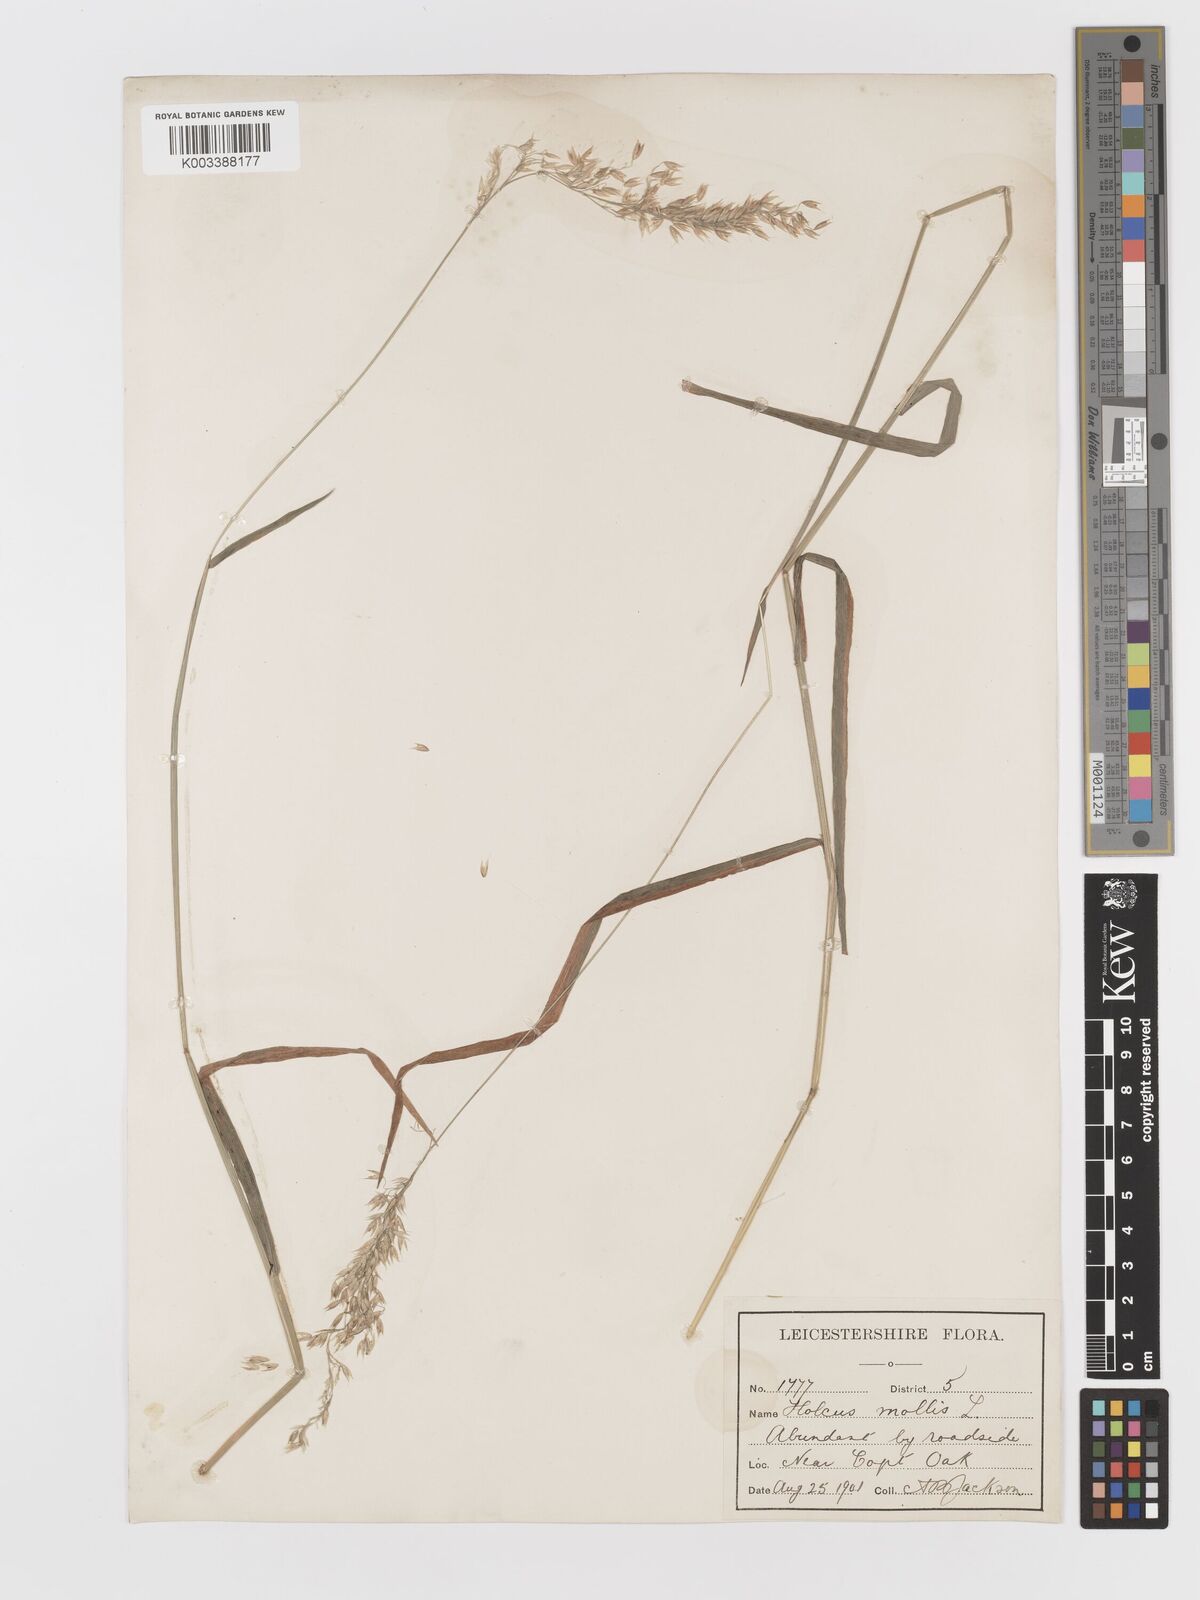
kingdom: Plantae
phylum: Tracheophyta
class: Liliopsida
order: Poales
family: Poaceae
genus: Holcus
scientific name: Holcus mollis
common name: Creeping velvetgrass
